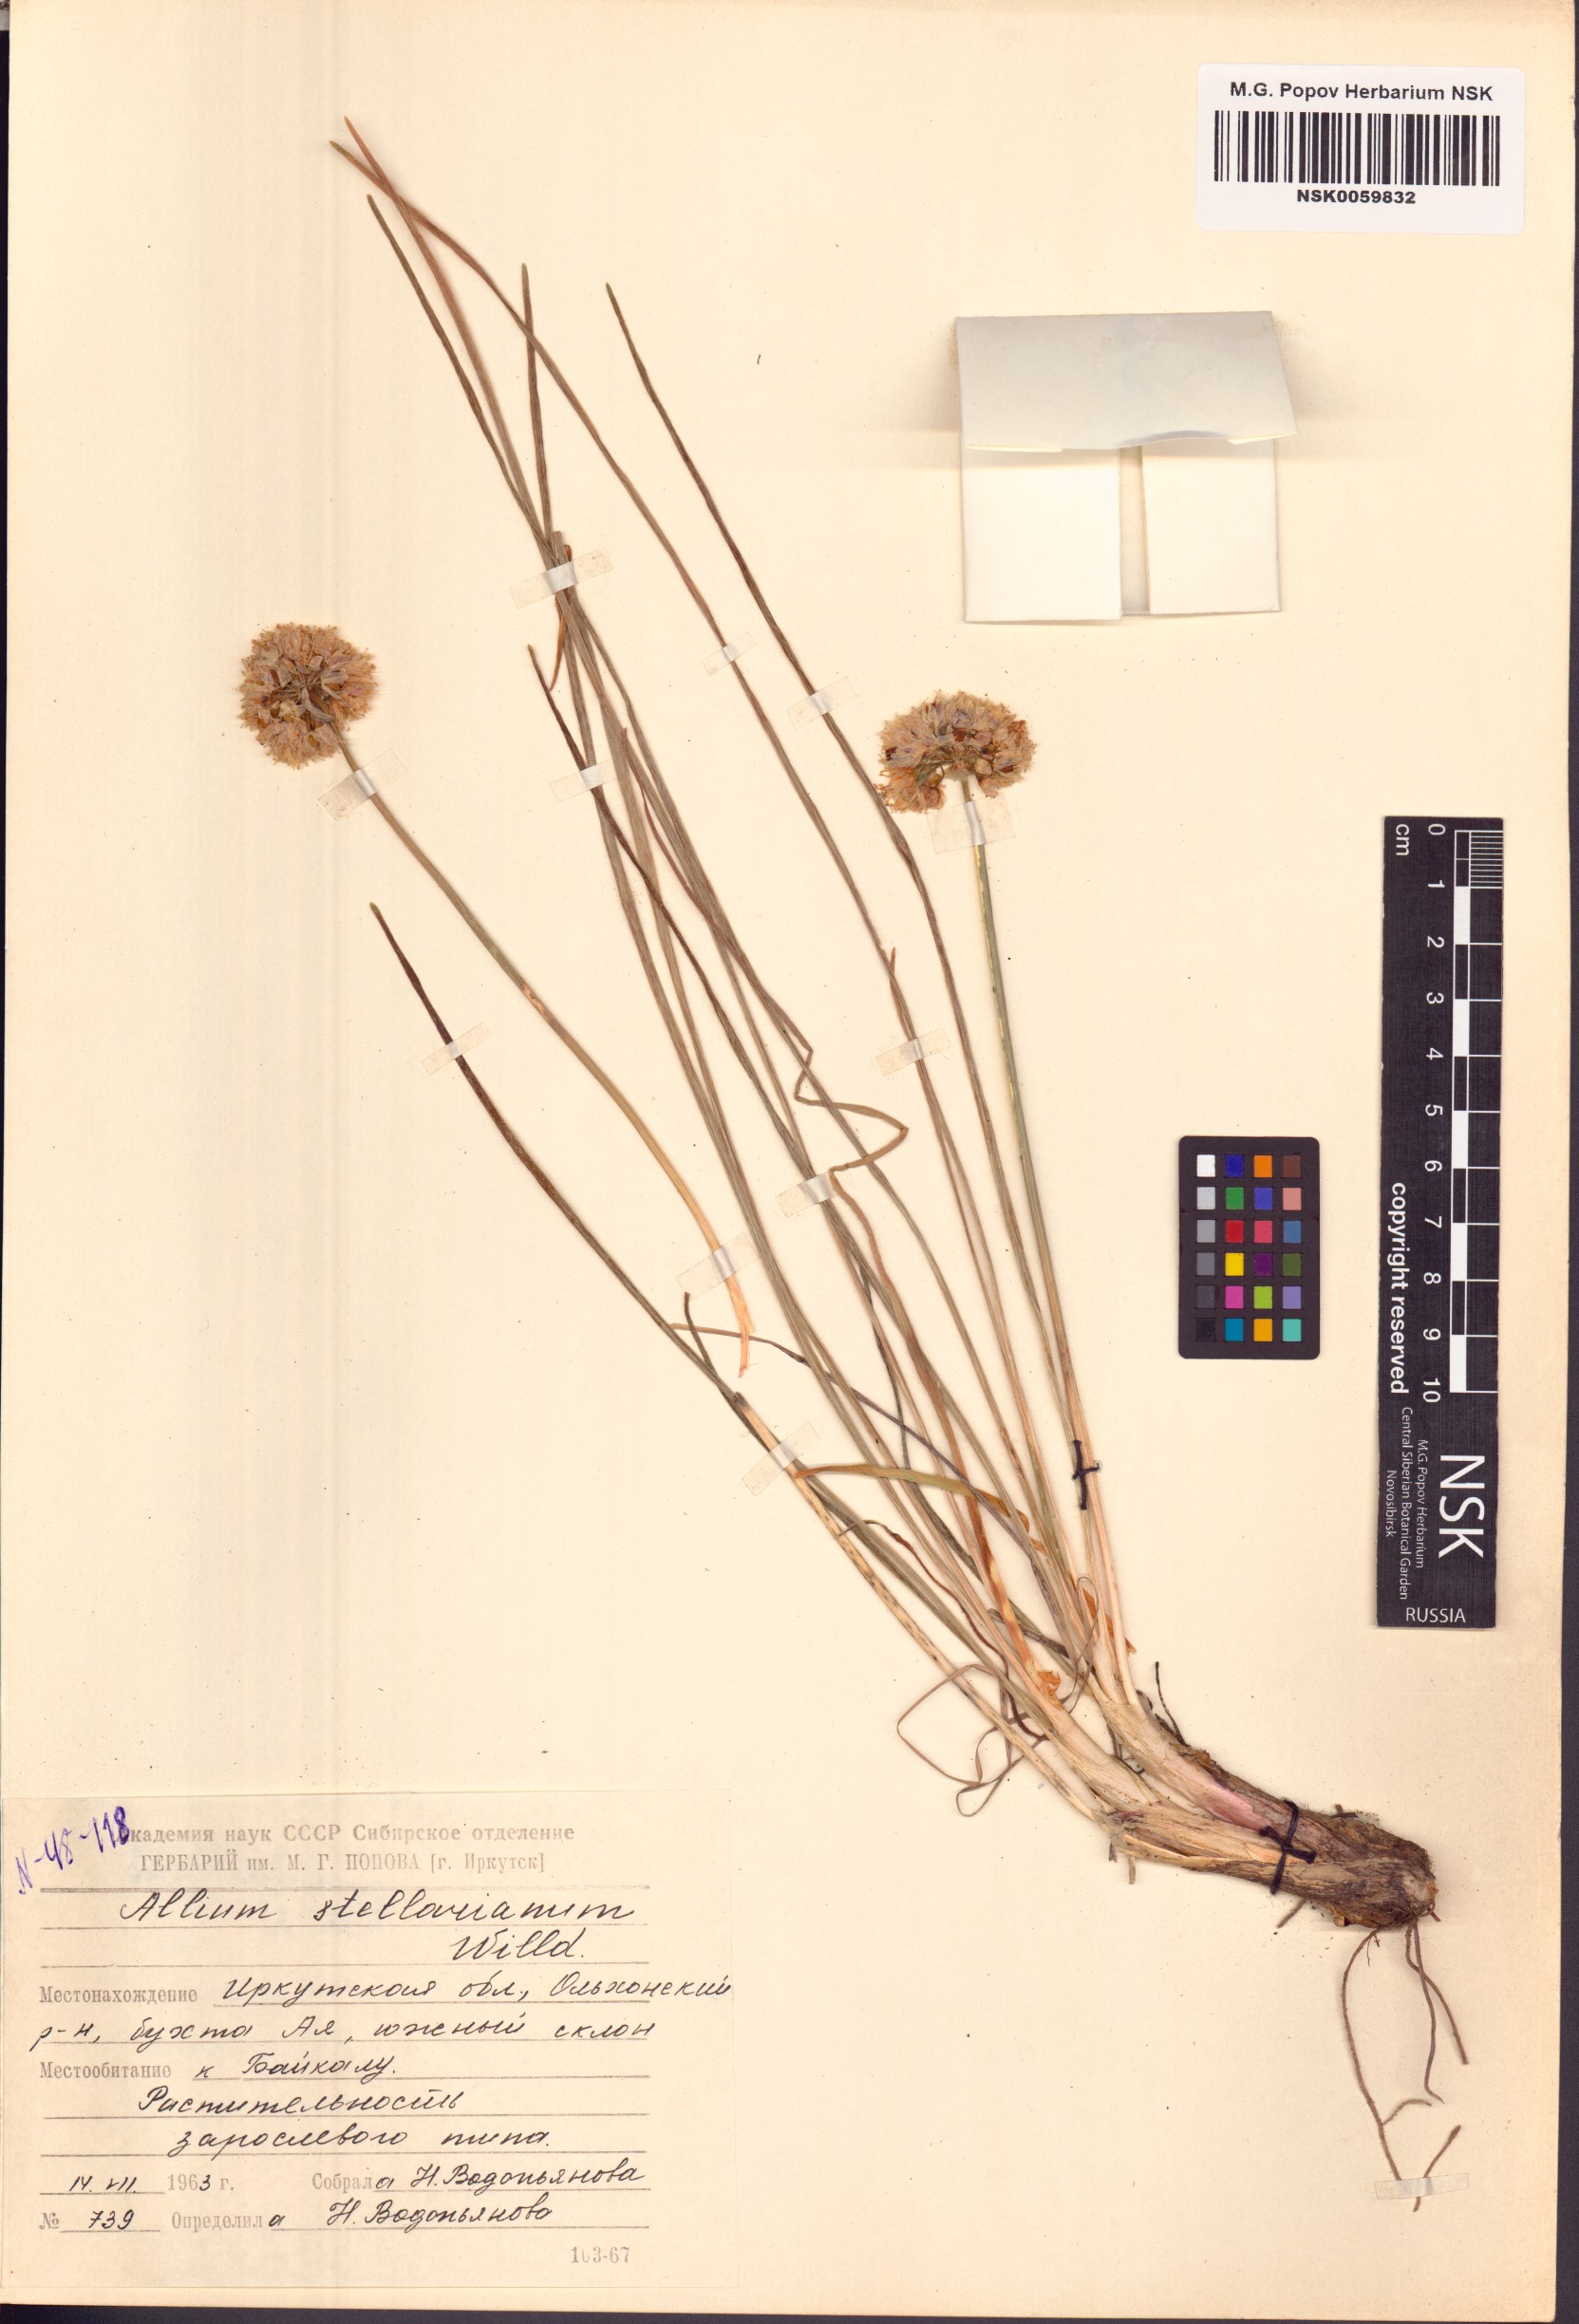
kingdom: Plantae
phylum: Tracheophyta
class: Liliopsida
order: Asparagales
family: Amaryllidaceae
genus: Allium
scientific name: Allium stellerianum
